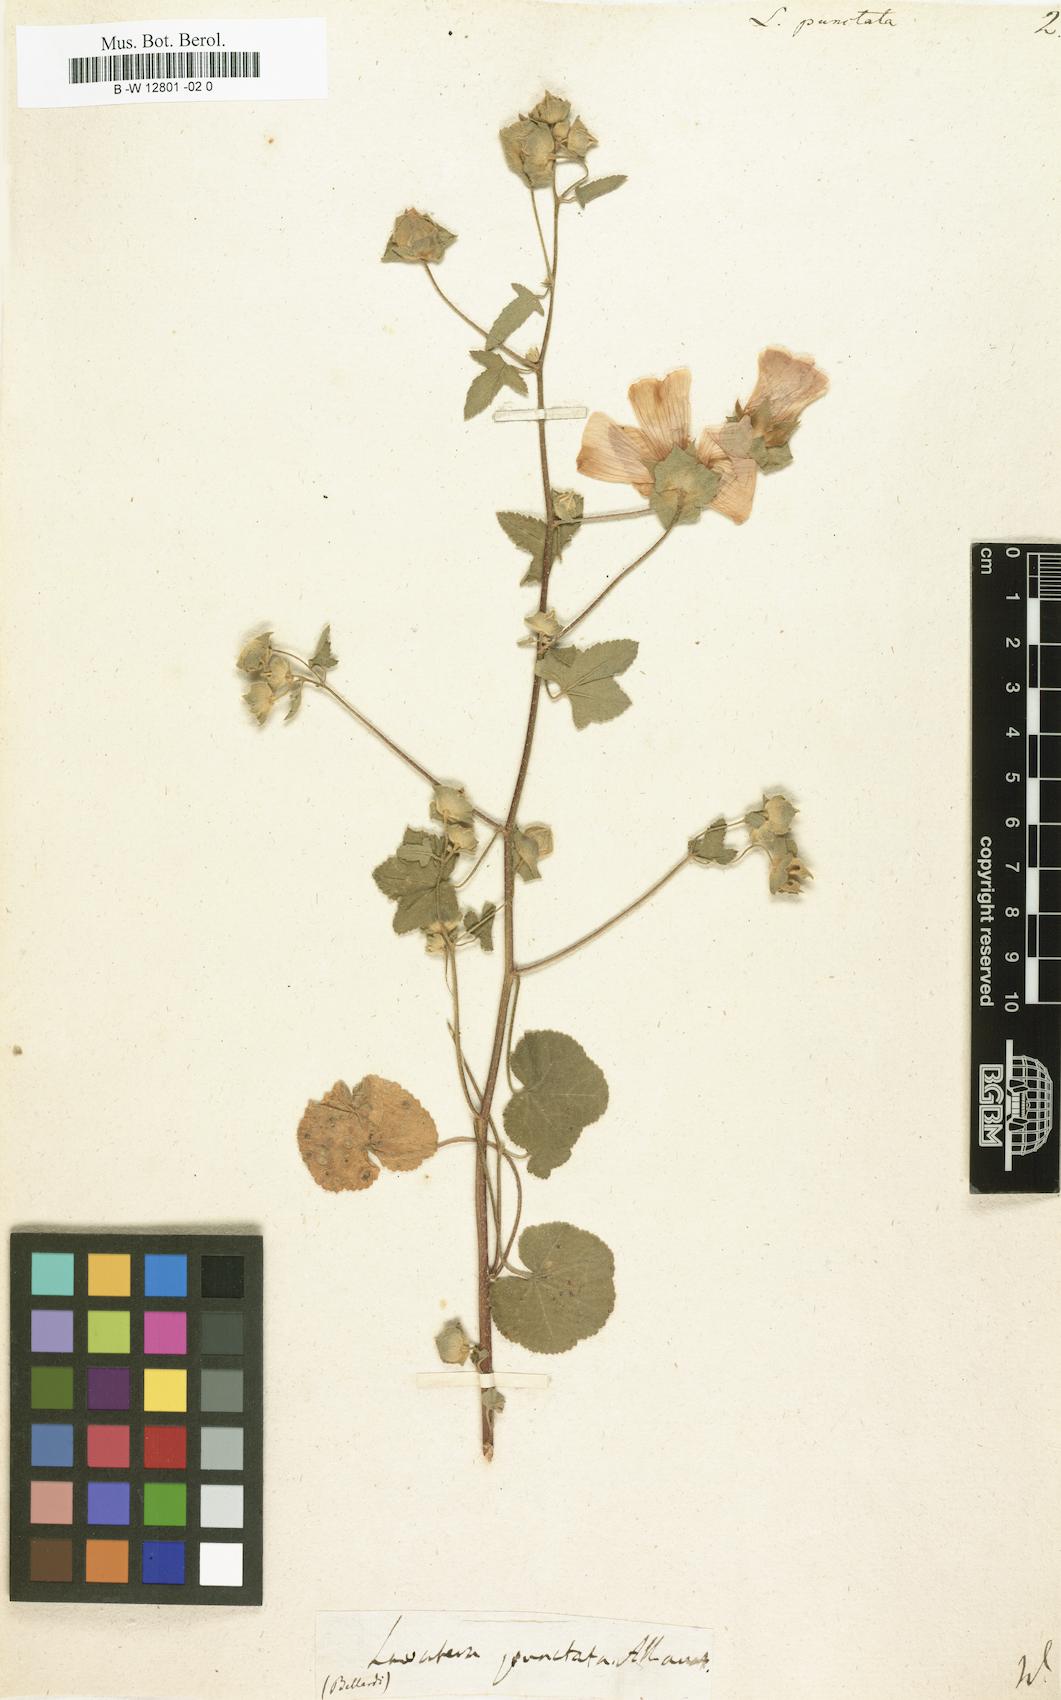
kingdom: Plantae
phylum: Tracheophyta
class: Magnoliopsida
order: Malvales
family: Malvaceae
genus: Malva
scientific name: Malva punctata
